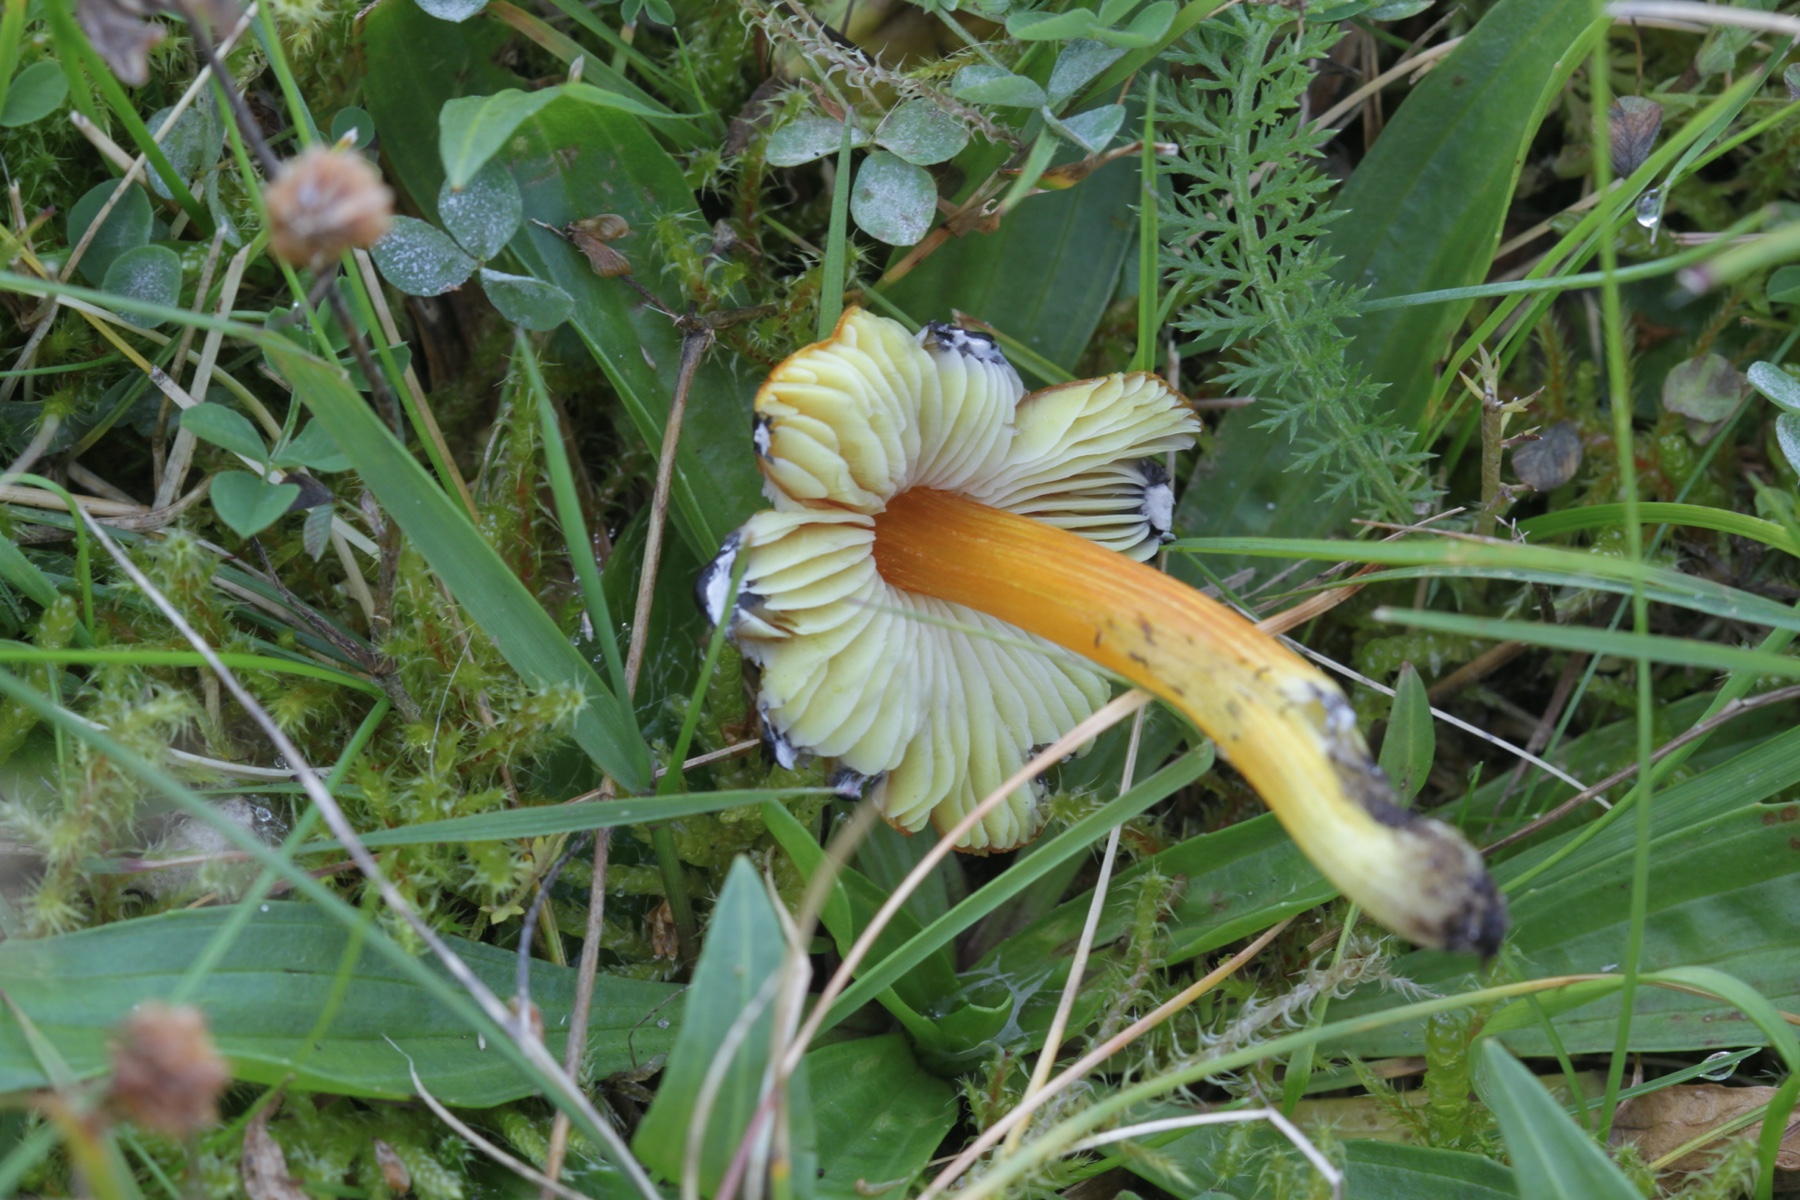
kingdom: Fungi
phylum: Basidiomycota
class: Agaricomycetes
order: Agaricales
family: Hygrophoraceae
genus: Hygrocybe
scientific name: Hygrocybe conica
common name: kegle-vokshat
